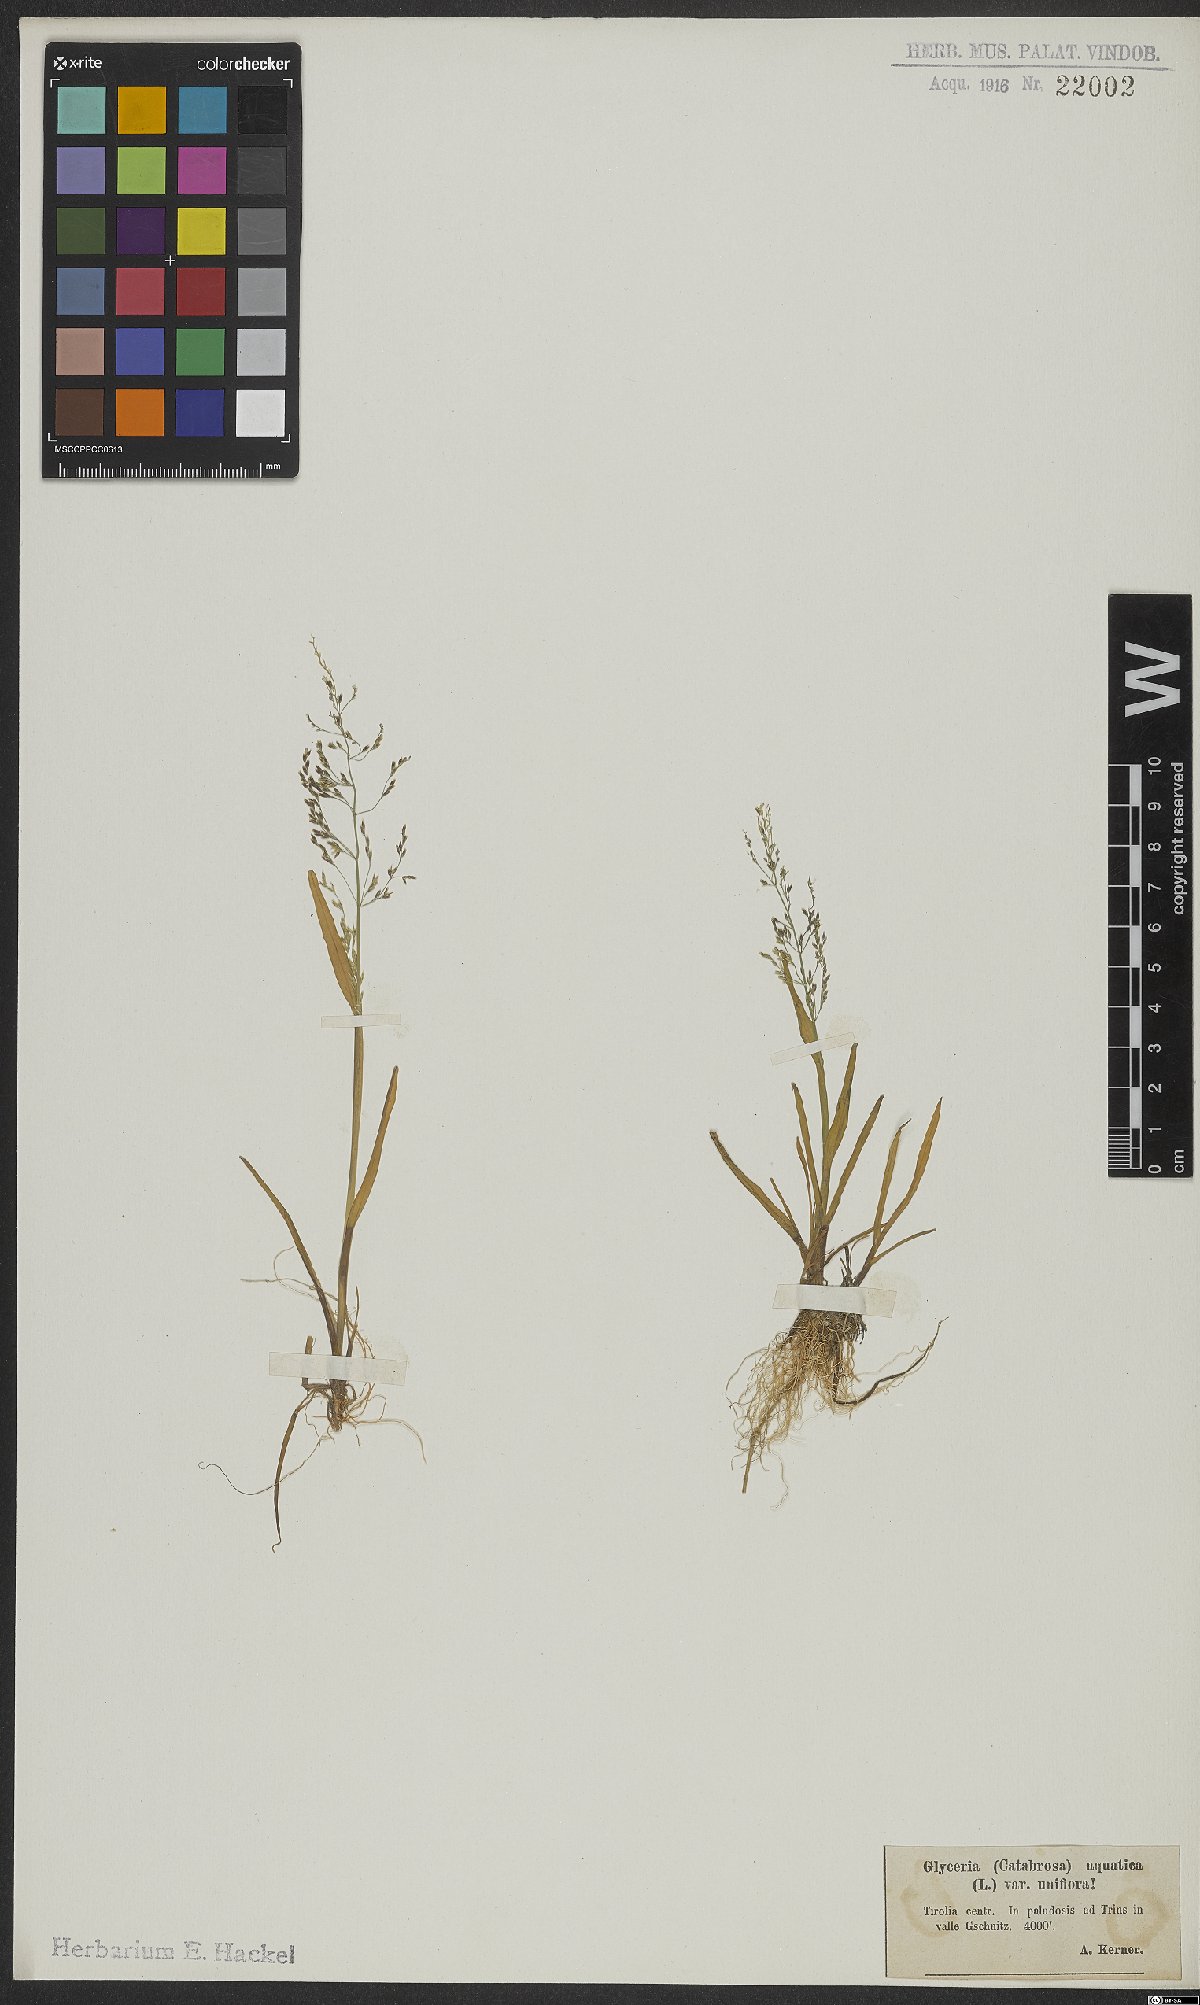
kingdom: Plantae
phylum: Tracheophyta
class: Liliopsida
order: Poales
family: Poaceae
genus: Catabrosa
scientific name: Catabrosa aquatica
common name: Whorl-grass
